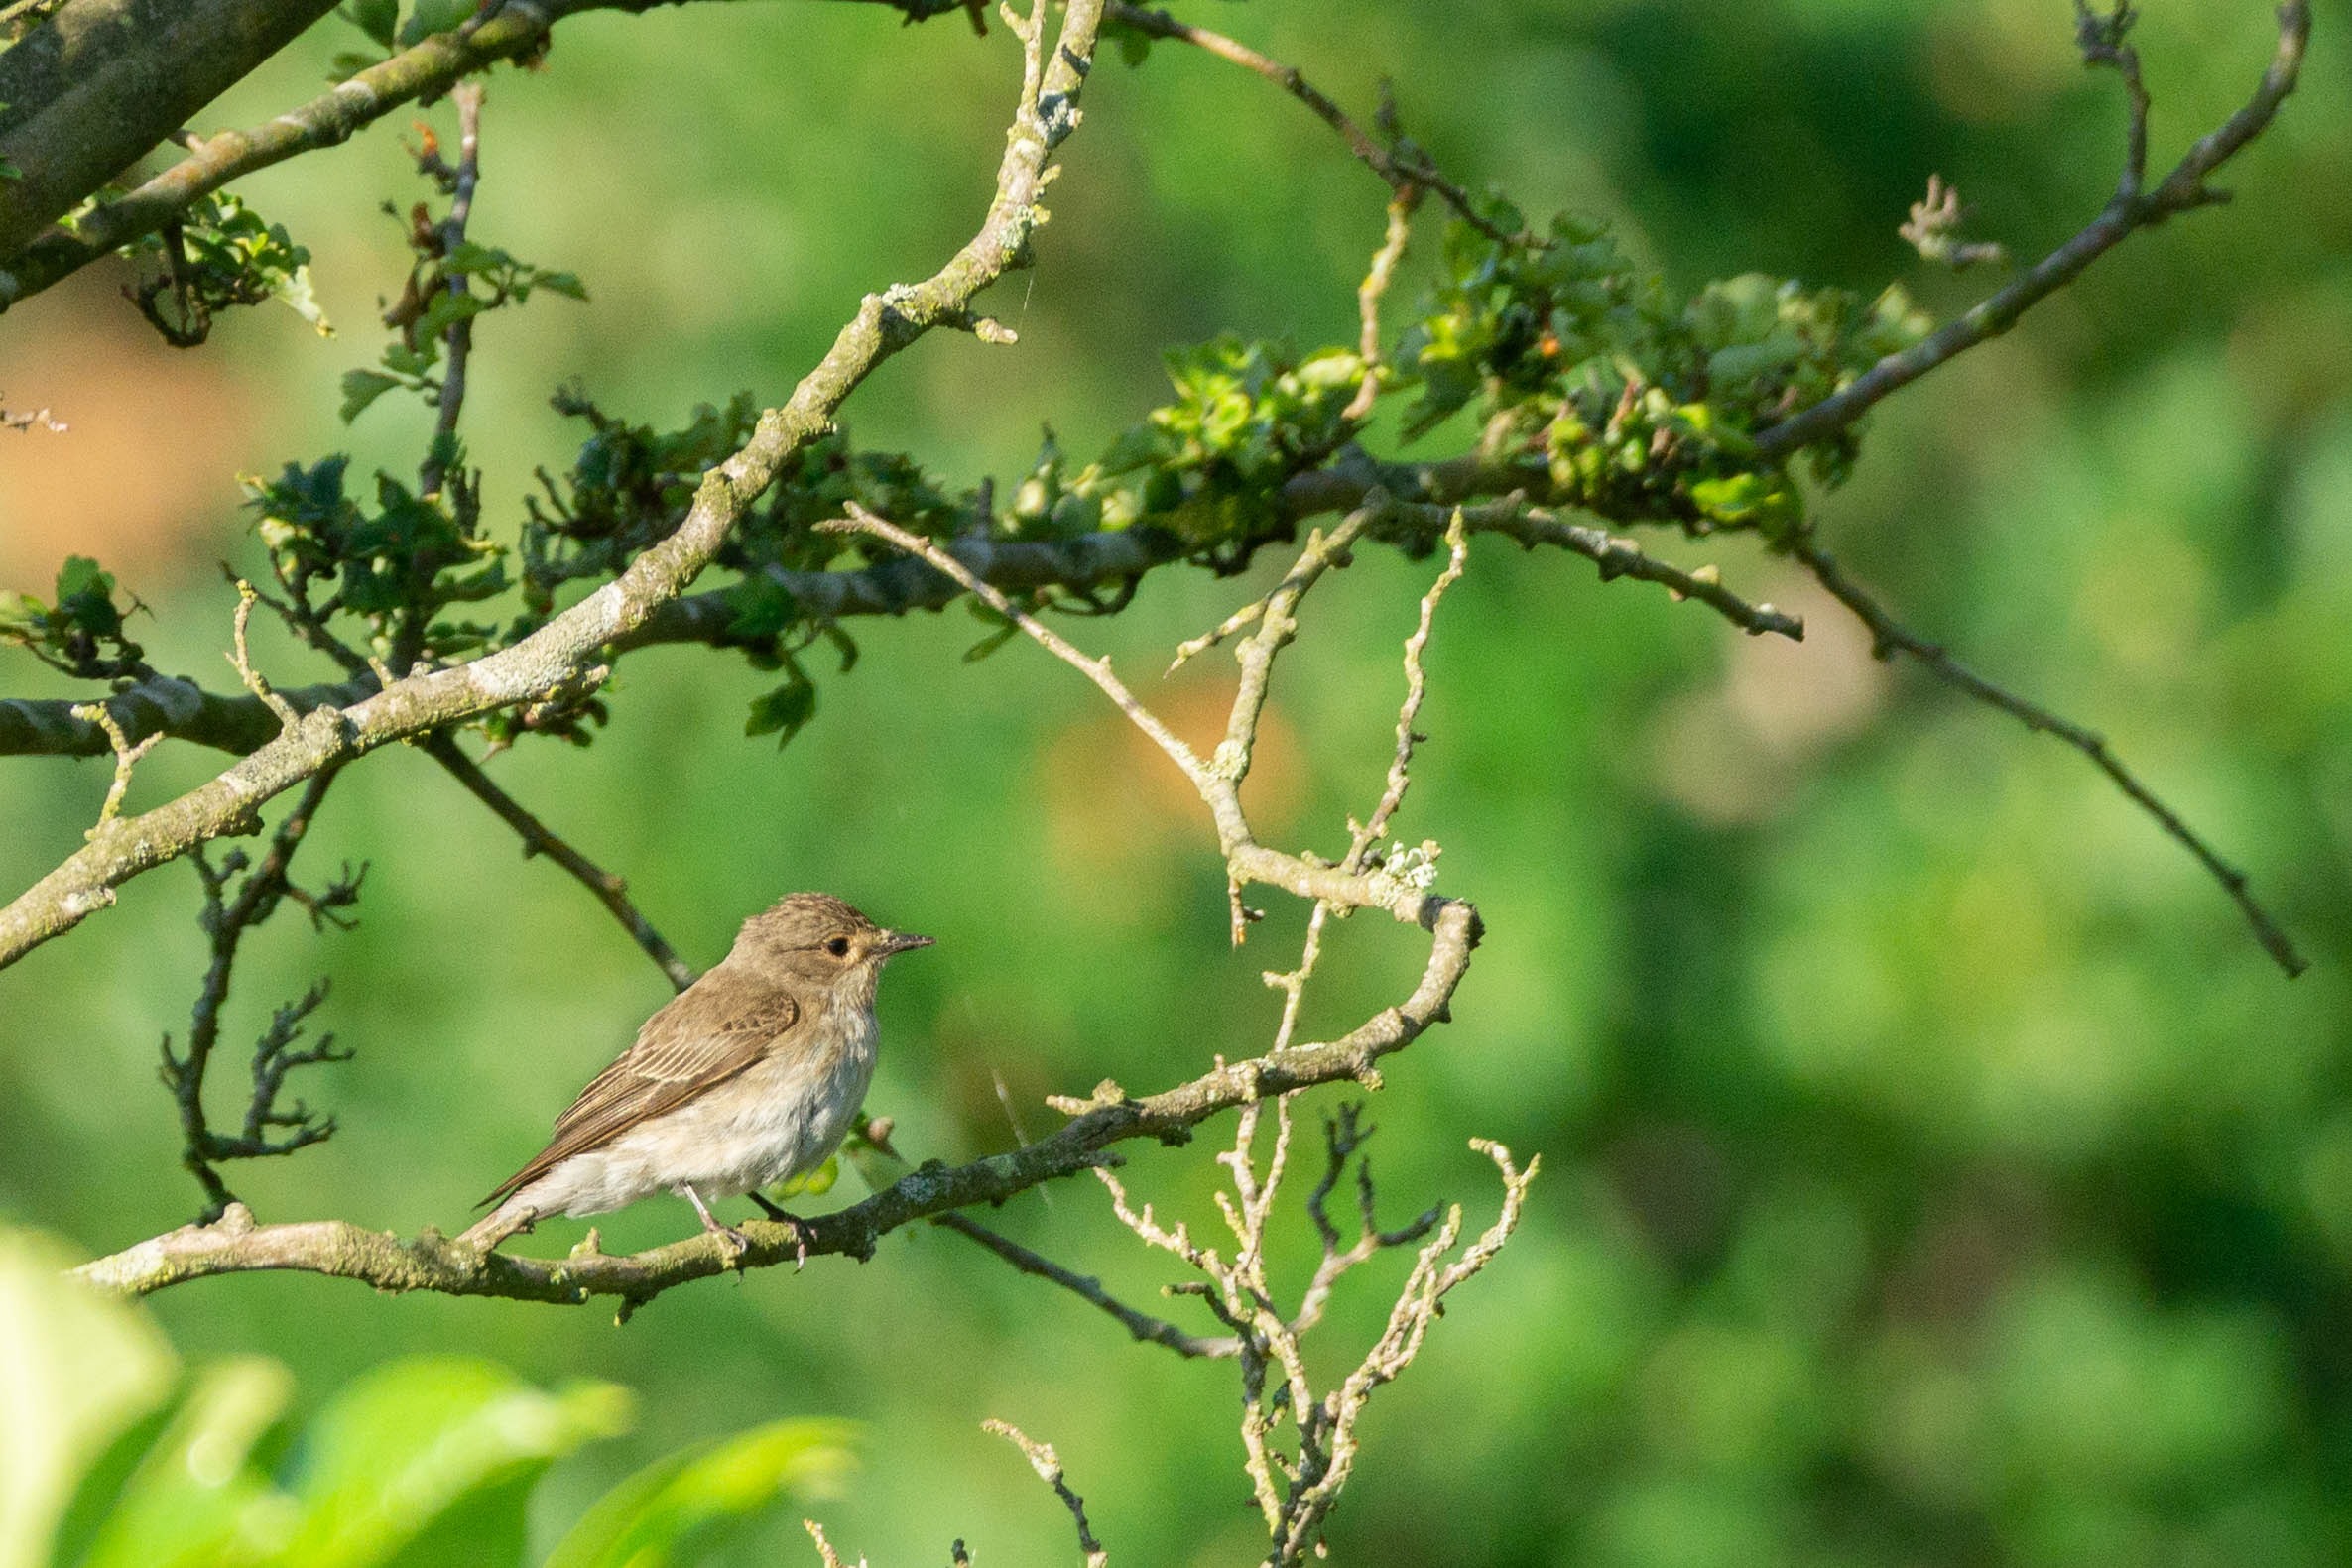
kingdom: Animalia
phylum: Chordata
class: Aves
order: Passeriformes
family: Muscicapidae
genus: Muscicapa
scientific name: Muscicapa striata
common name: Grå fluesnapper
